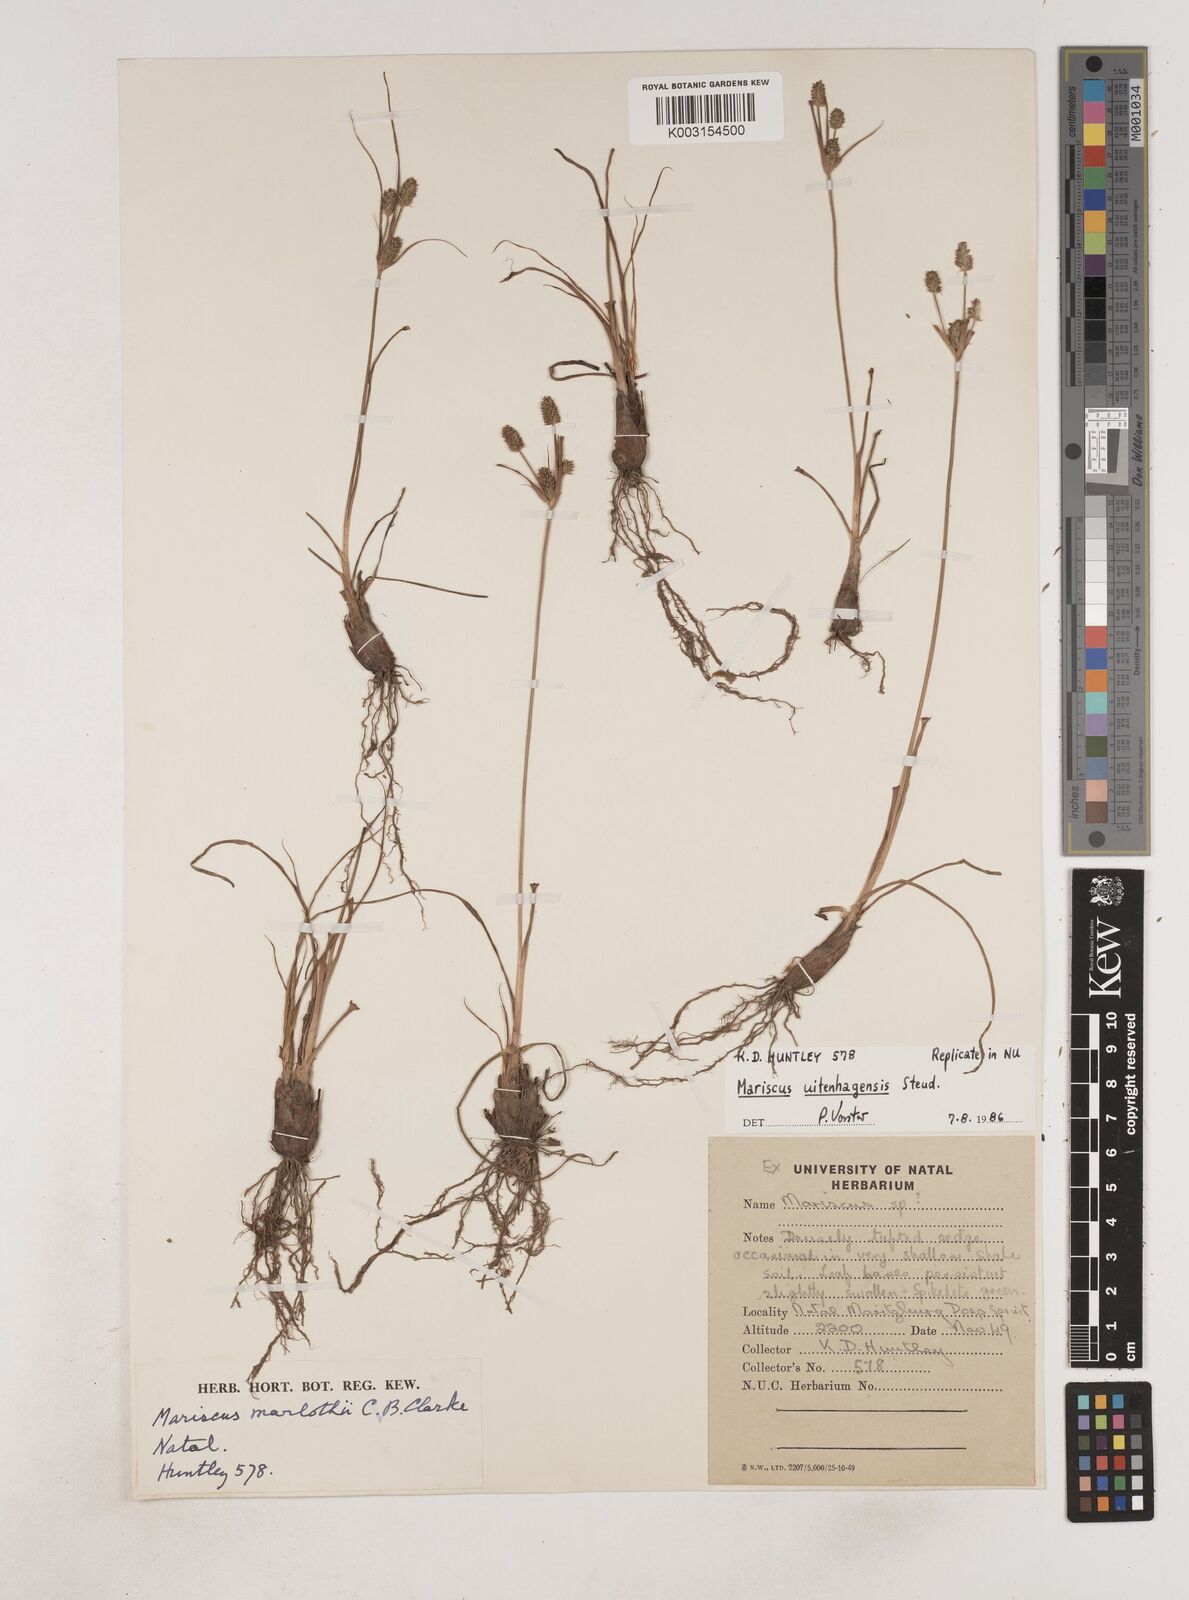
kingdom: Plantae
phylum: Tracheophyta
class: Liliopsida
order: Poales
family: Cyperaceae
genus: Cyperus
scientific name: Cyperus capensis
